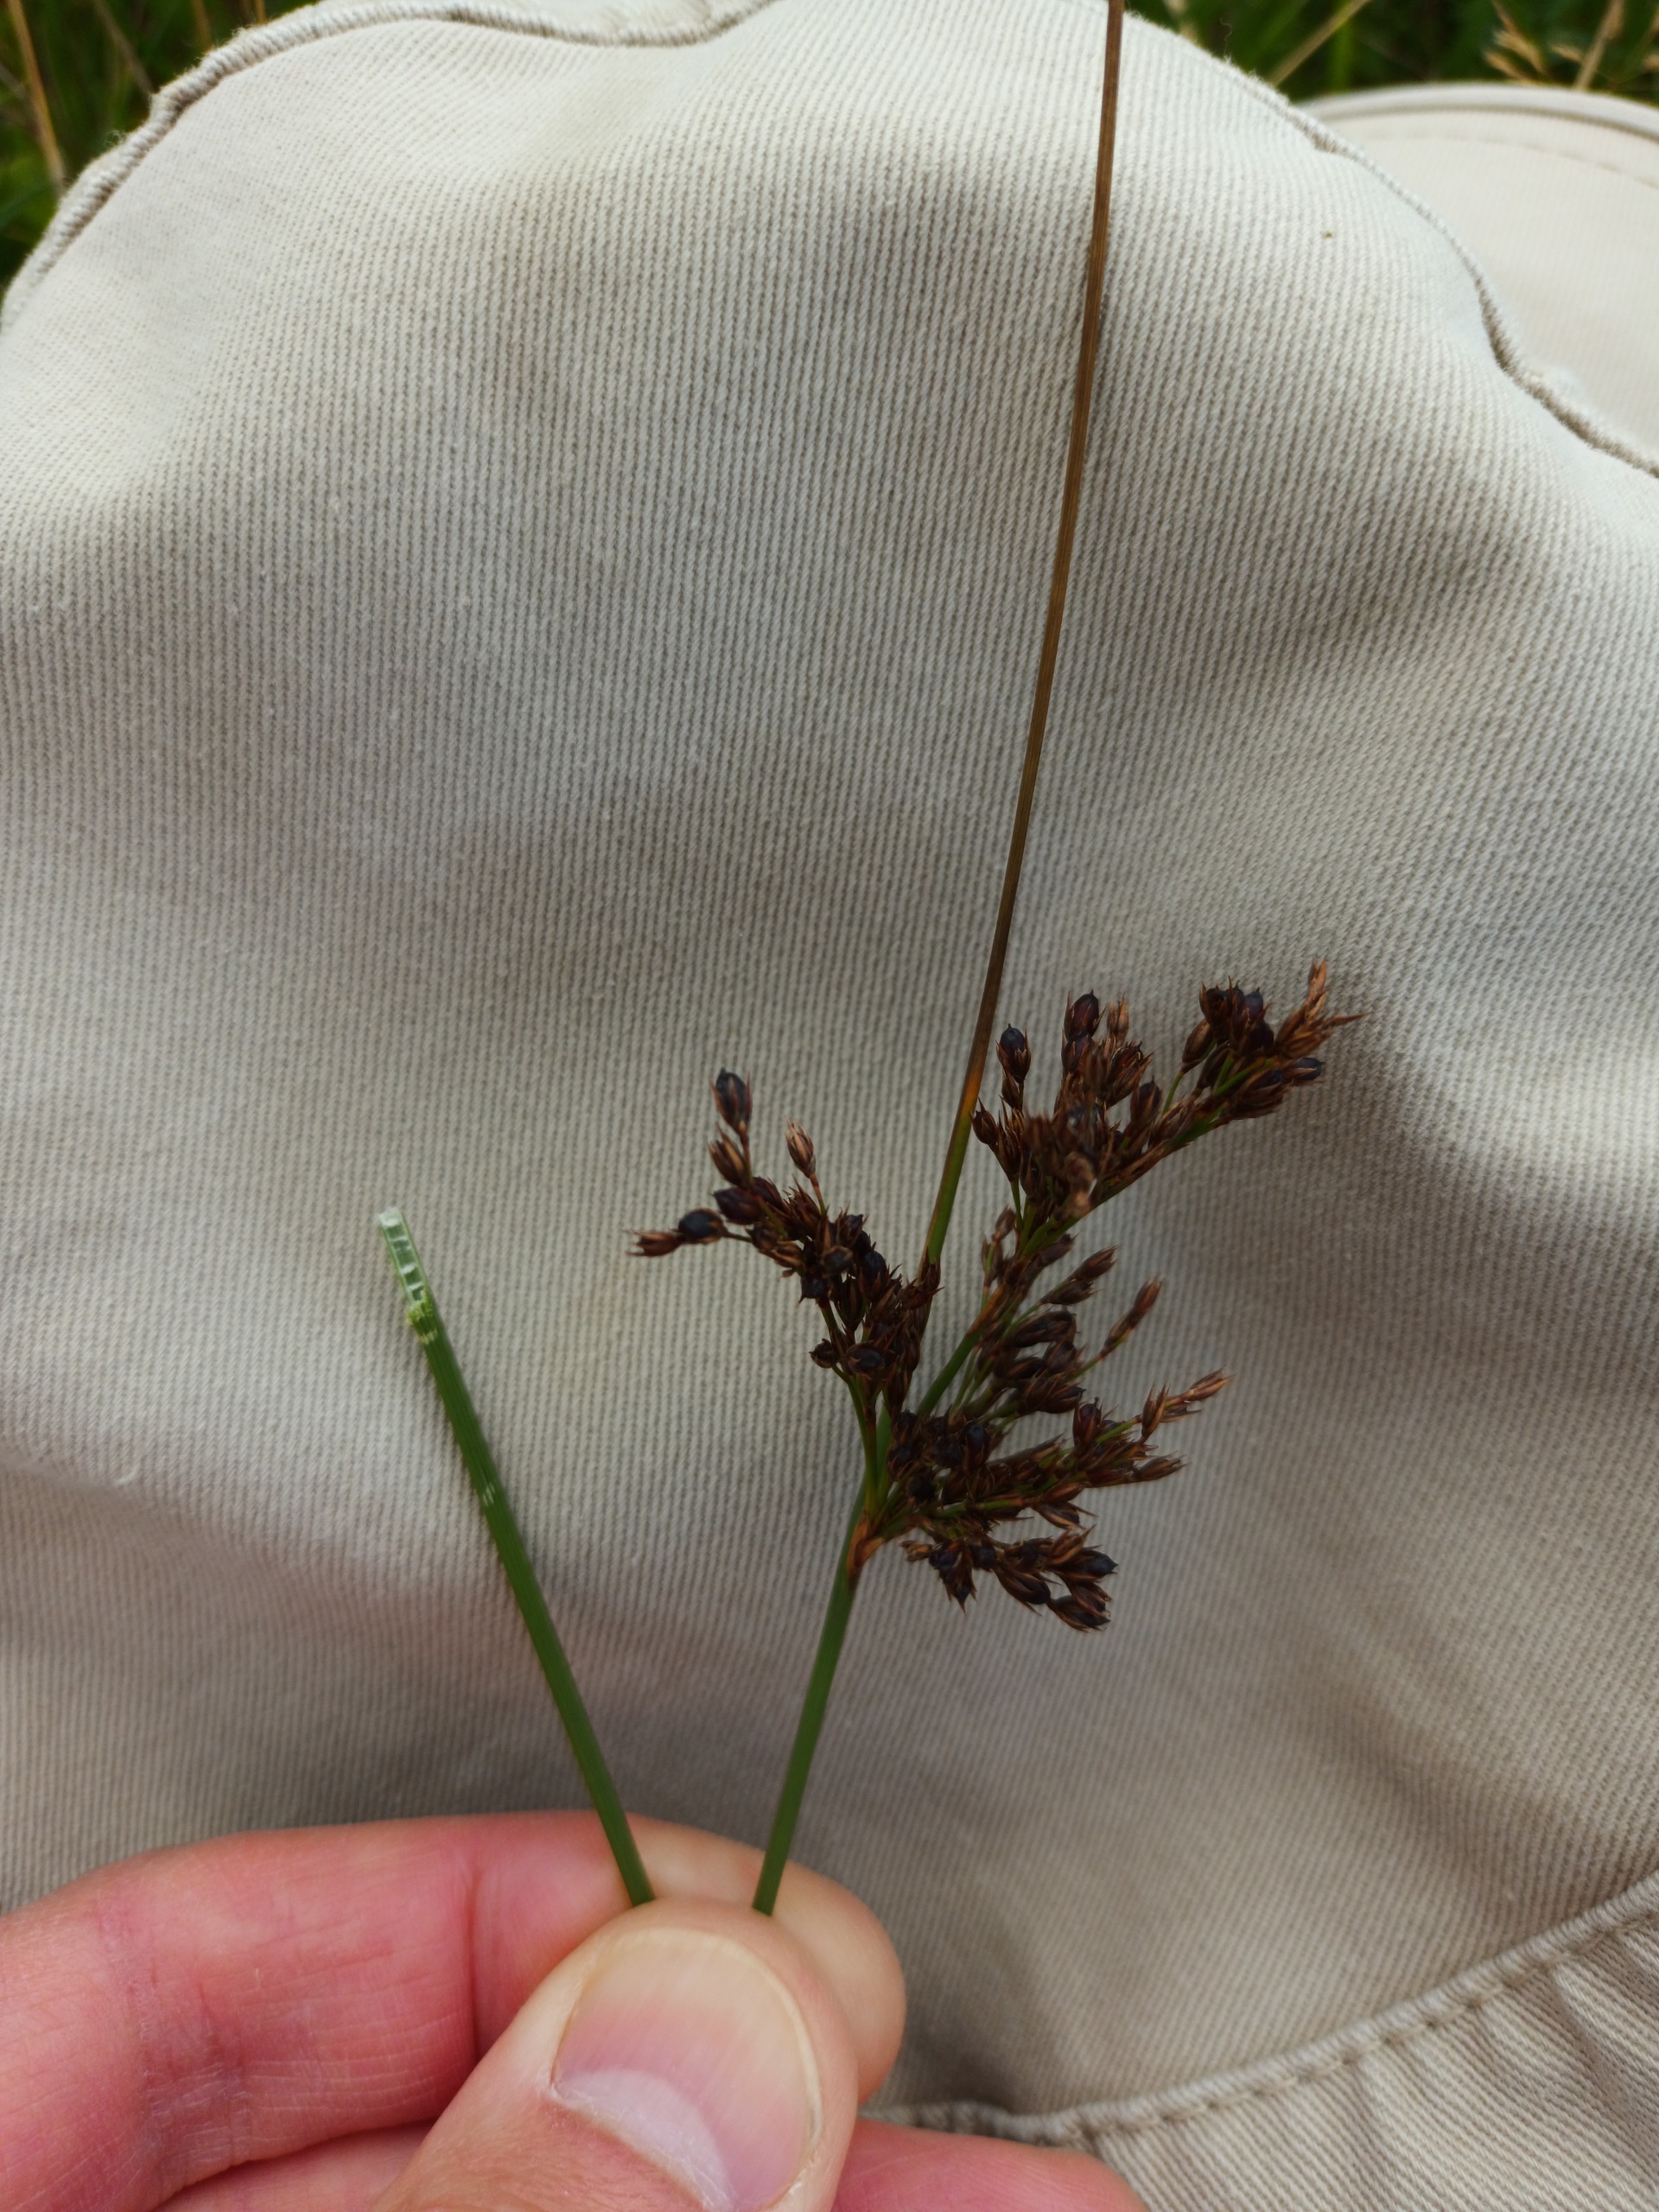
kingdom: Plantae
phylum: Tracheophyta
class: Liliopsida
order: Poales
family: Juncaceae
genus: Juncus
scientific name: Juncus inflexus
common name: Blågrå siv
